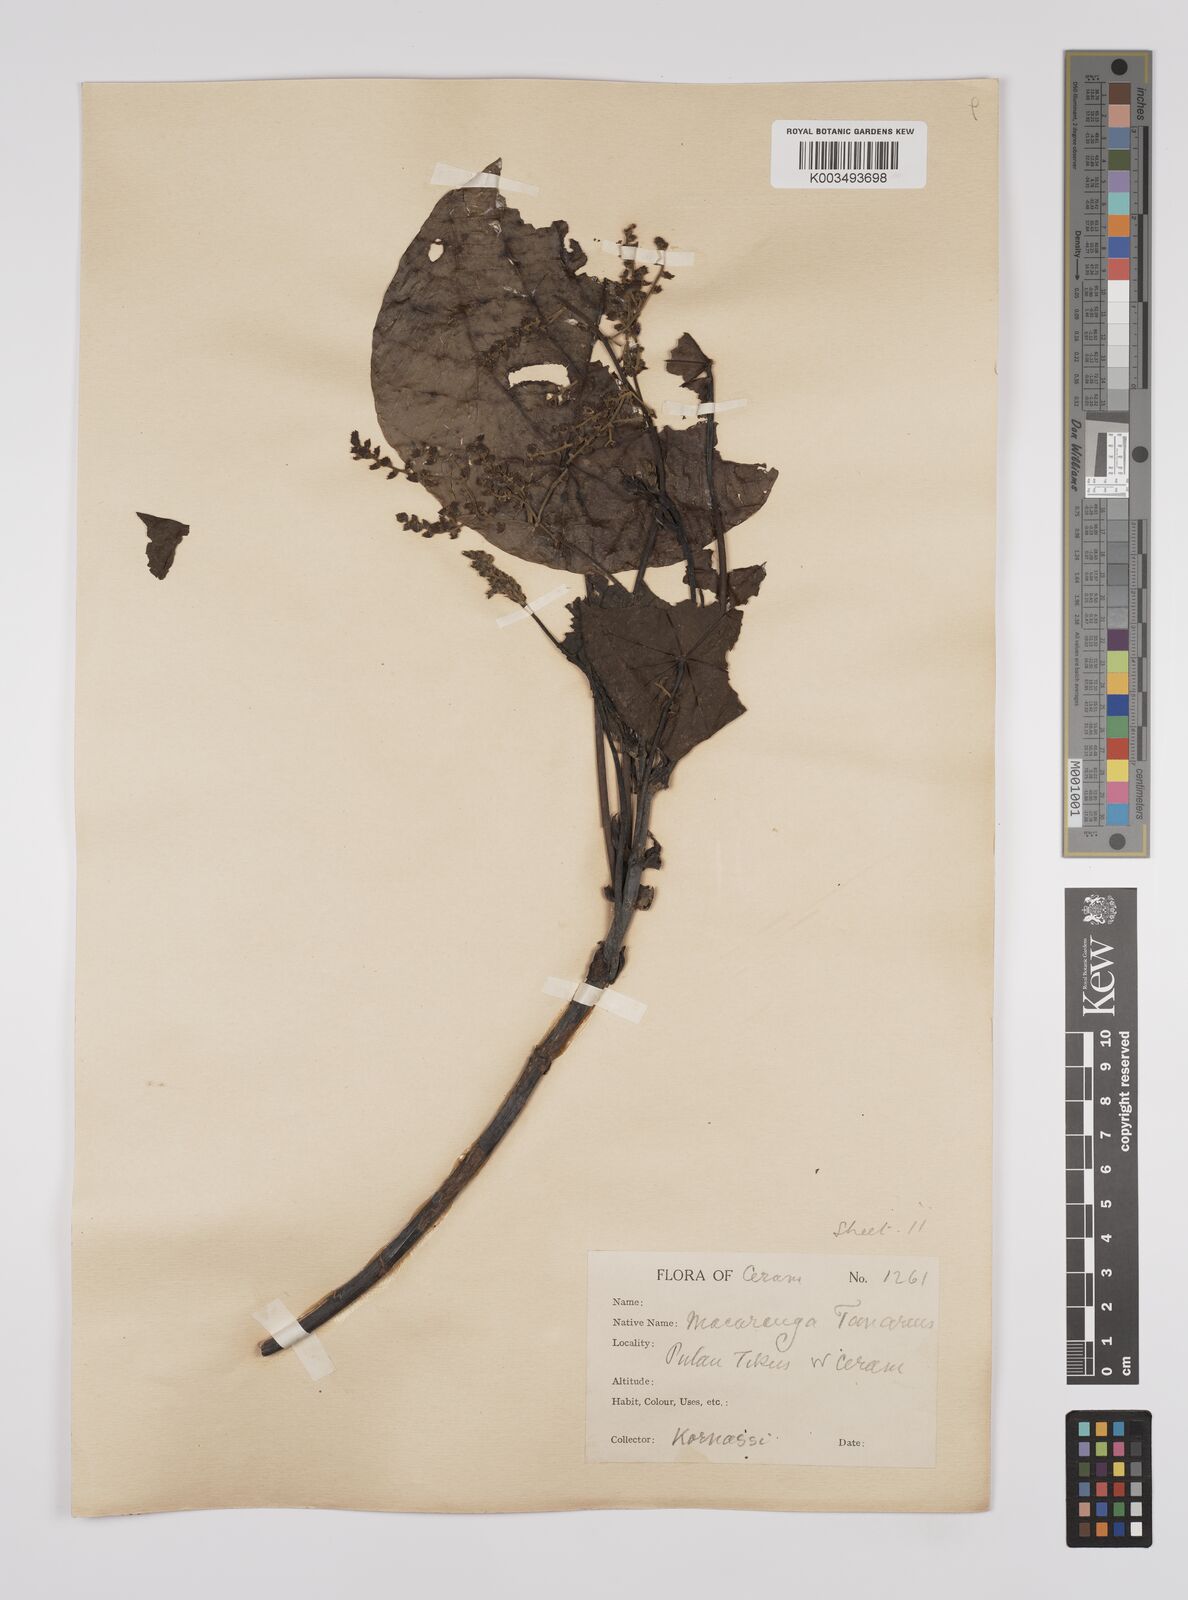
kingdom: Plantae
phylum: Tracheophyta
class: Magnoliopsida
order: Malpighiales
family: Euphorbiaceae
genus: Macaranga
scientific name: Macaranga tanarius
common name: Parasol leaf tree
